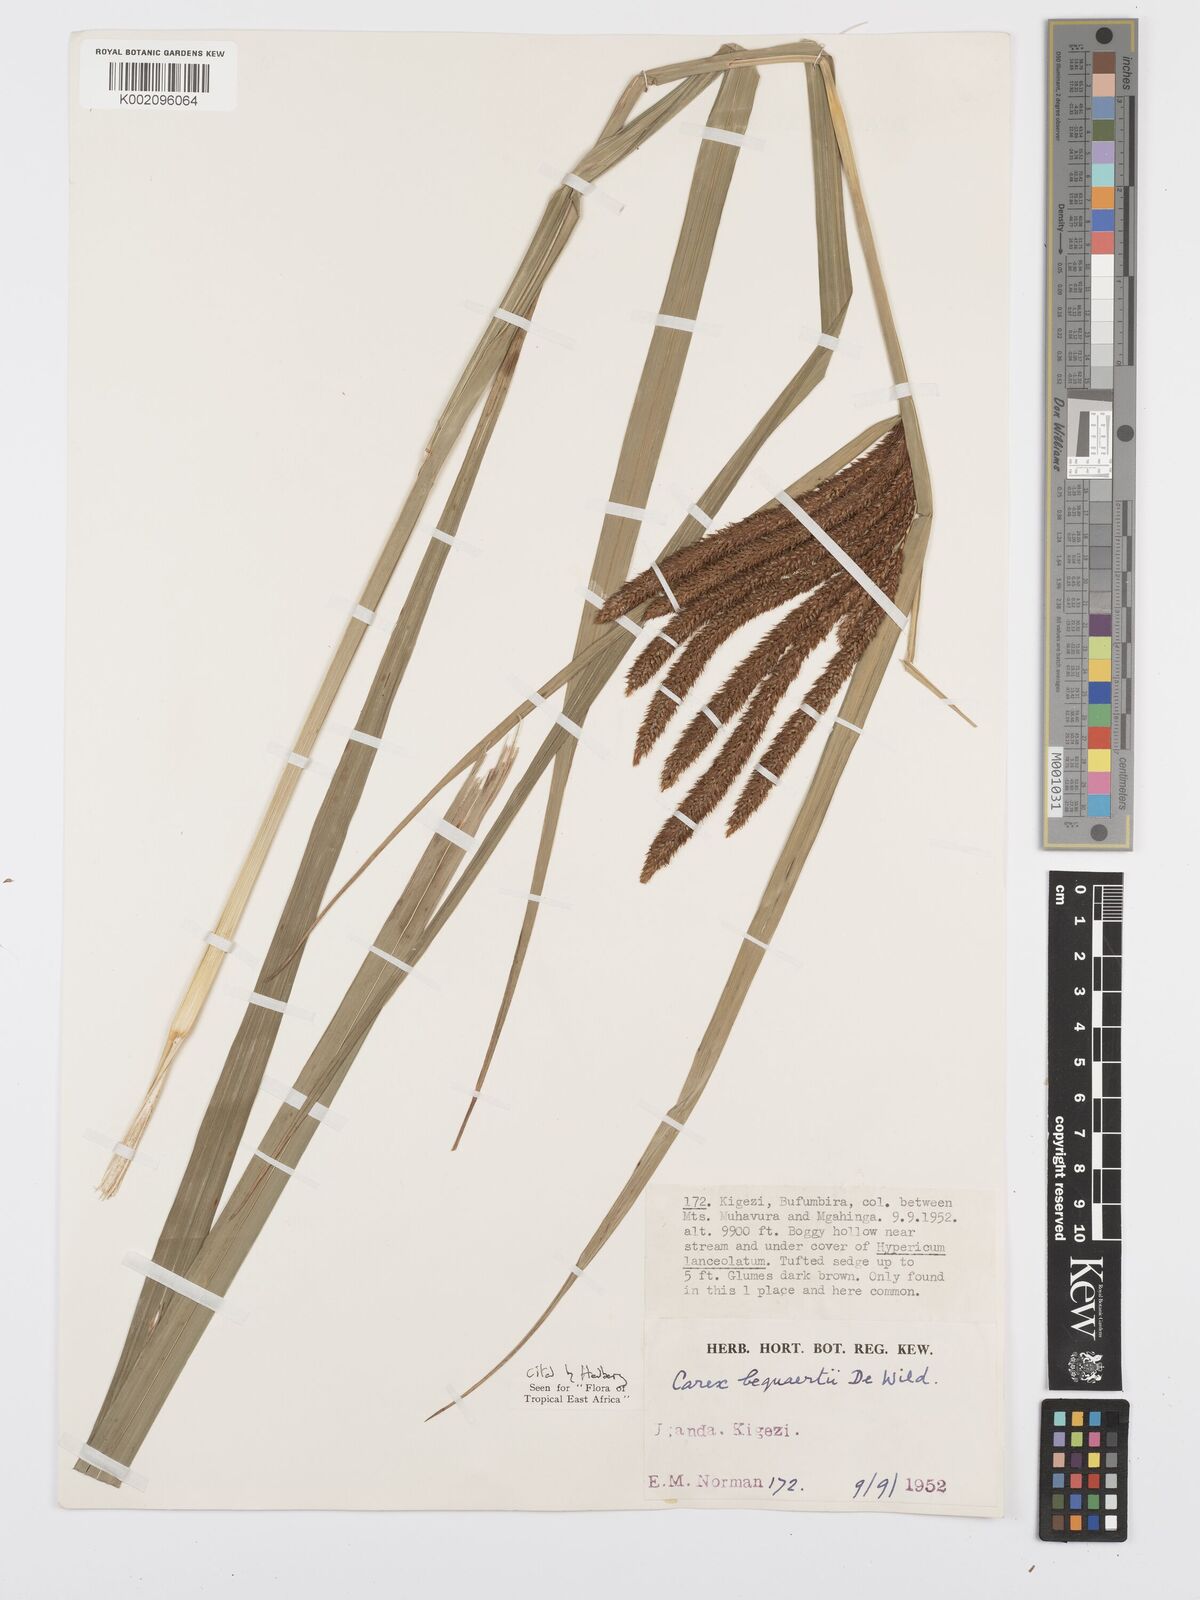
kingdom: Plantae
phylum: Tracheophyta
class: Liliopsida
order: Poales
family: Cyperaceae
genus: Carex
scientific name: Carex bequaertii
